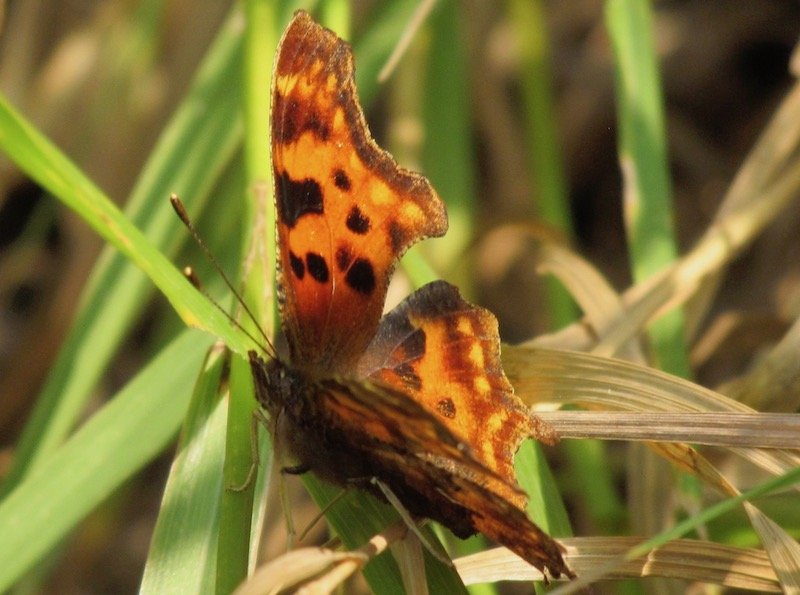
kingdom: Animalia
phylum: Arthropoda
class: Insecta
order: Lepidoptera
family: Nymphalidae
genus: Polygonia
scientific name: Polygonia progne
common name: Gray Comma
